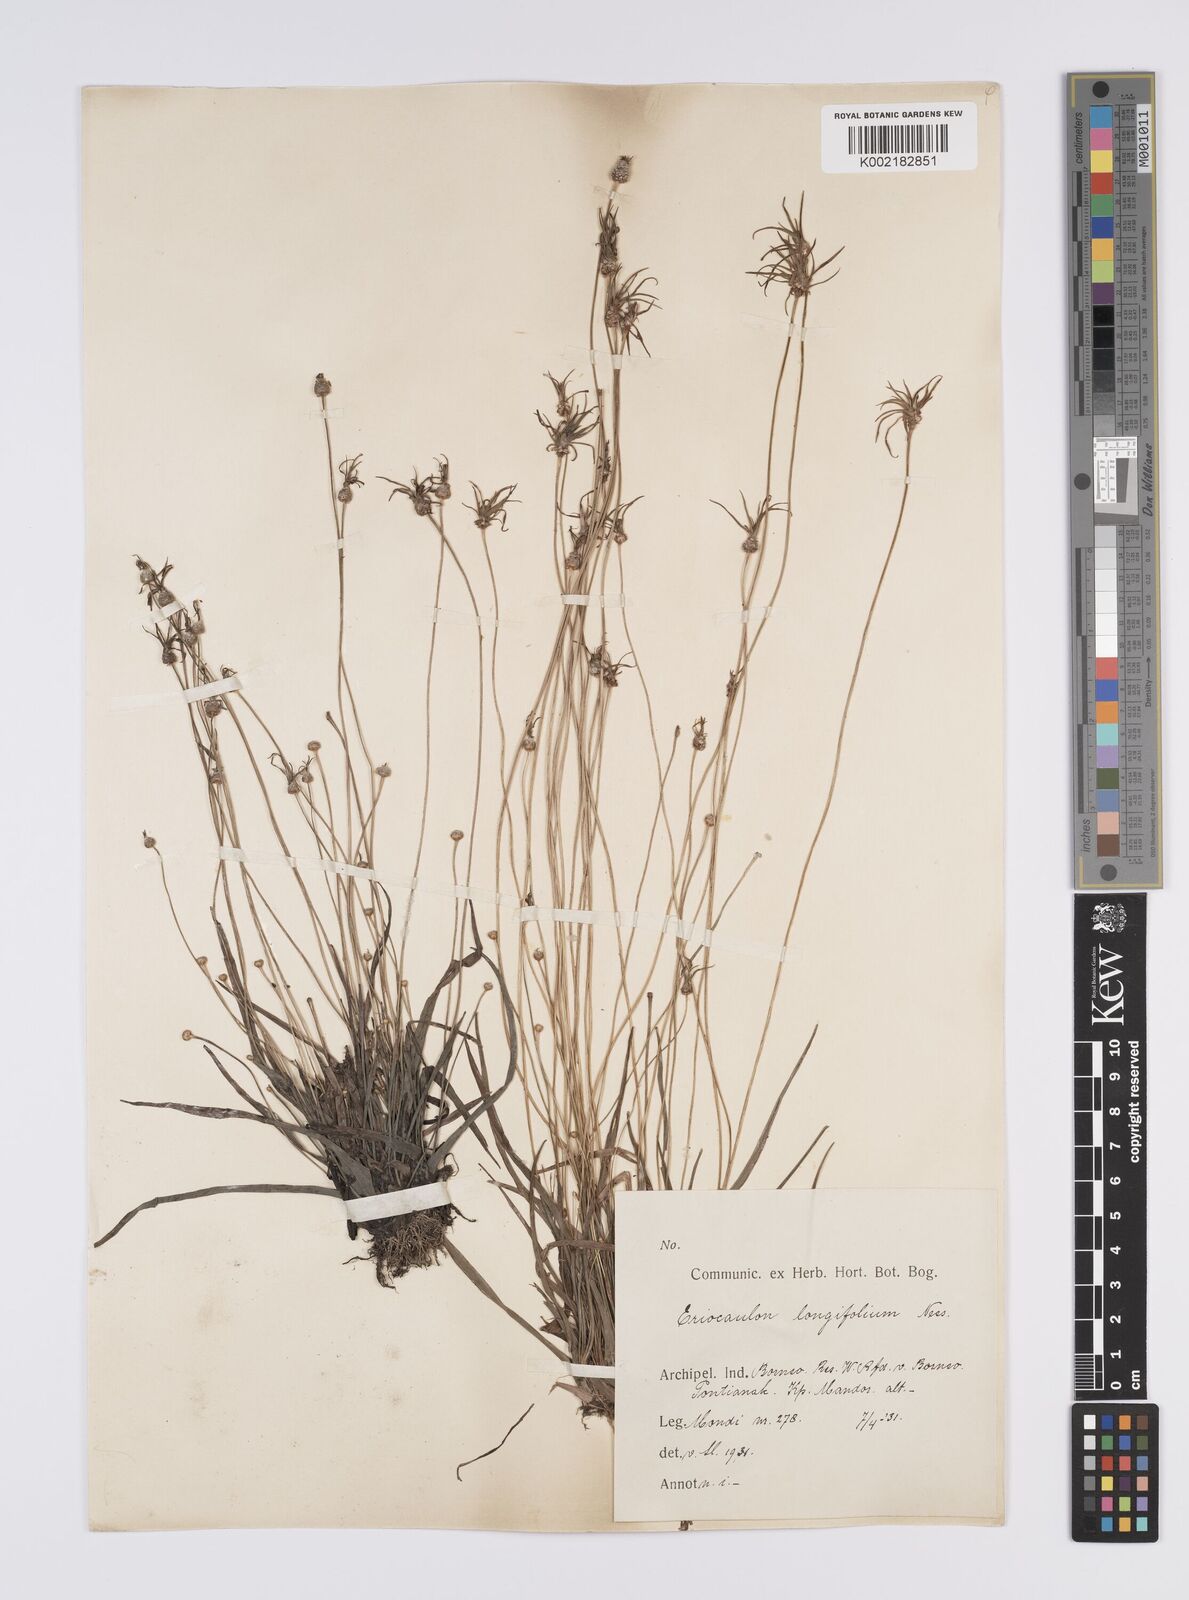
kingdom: Plantae
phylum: Tracheophyta
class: Liliopsida
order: Poales
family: Eriocaulaceae
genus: Eriocaulon
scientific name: Eriocaulon willdenovianum
